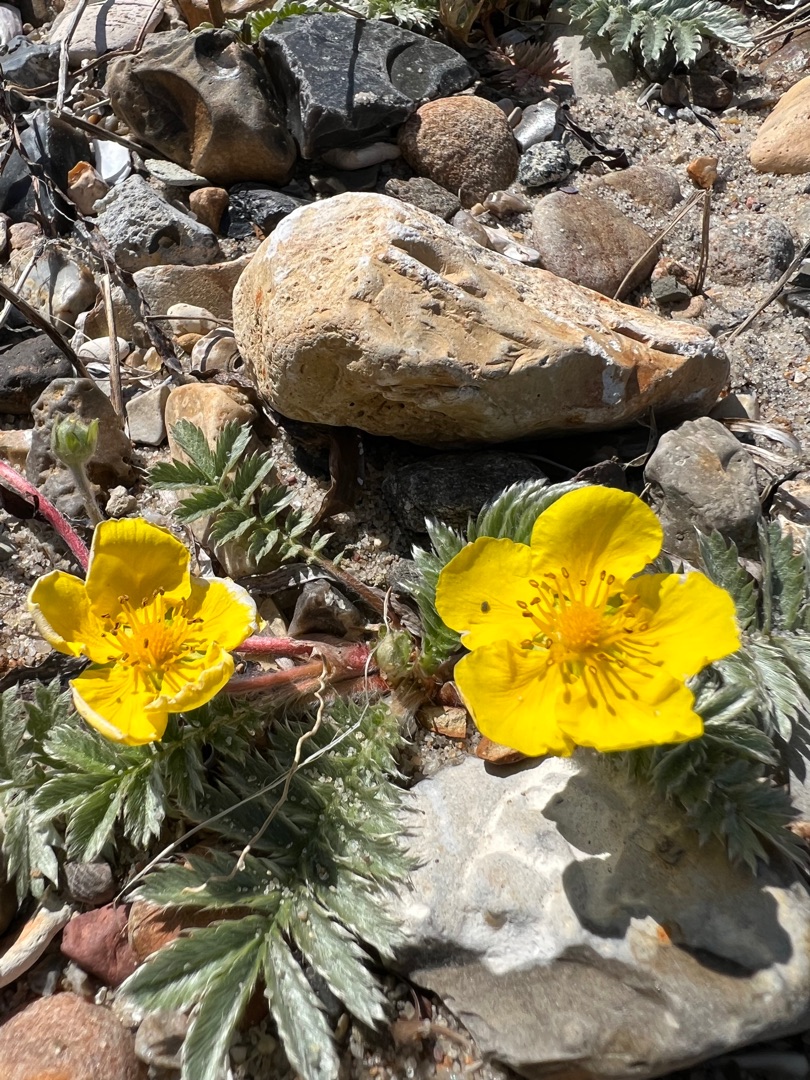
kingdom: Plantae
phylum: Tracheophyta
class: Magnoliopsida
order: Rosales
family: Rosaceae
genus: Argentina
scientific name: Argentina anserina
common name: Gåsepotentil
